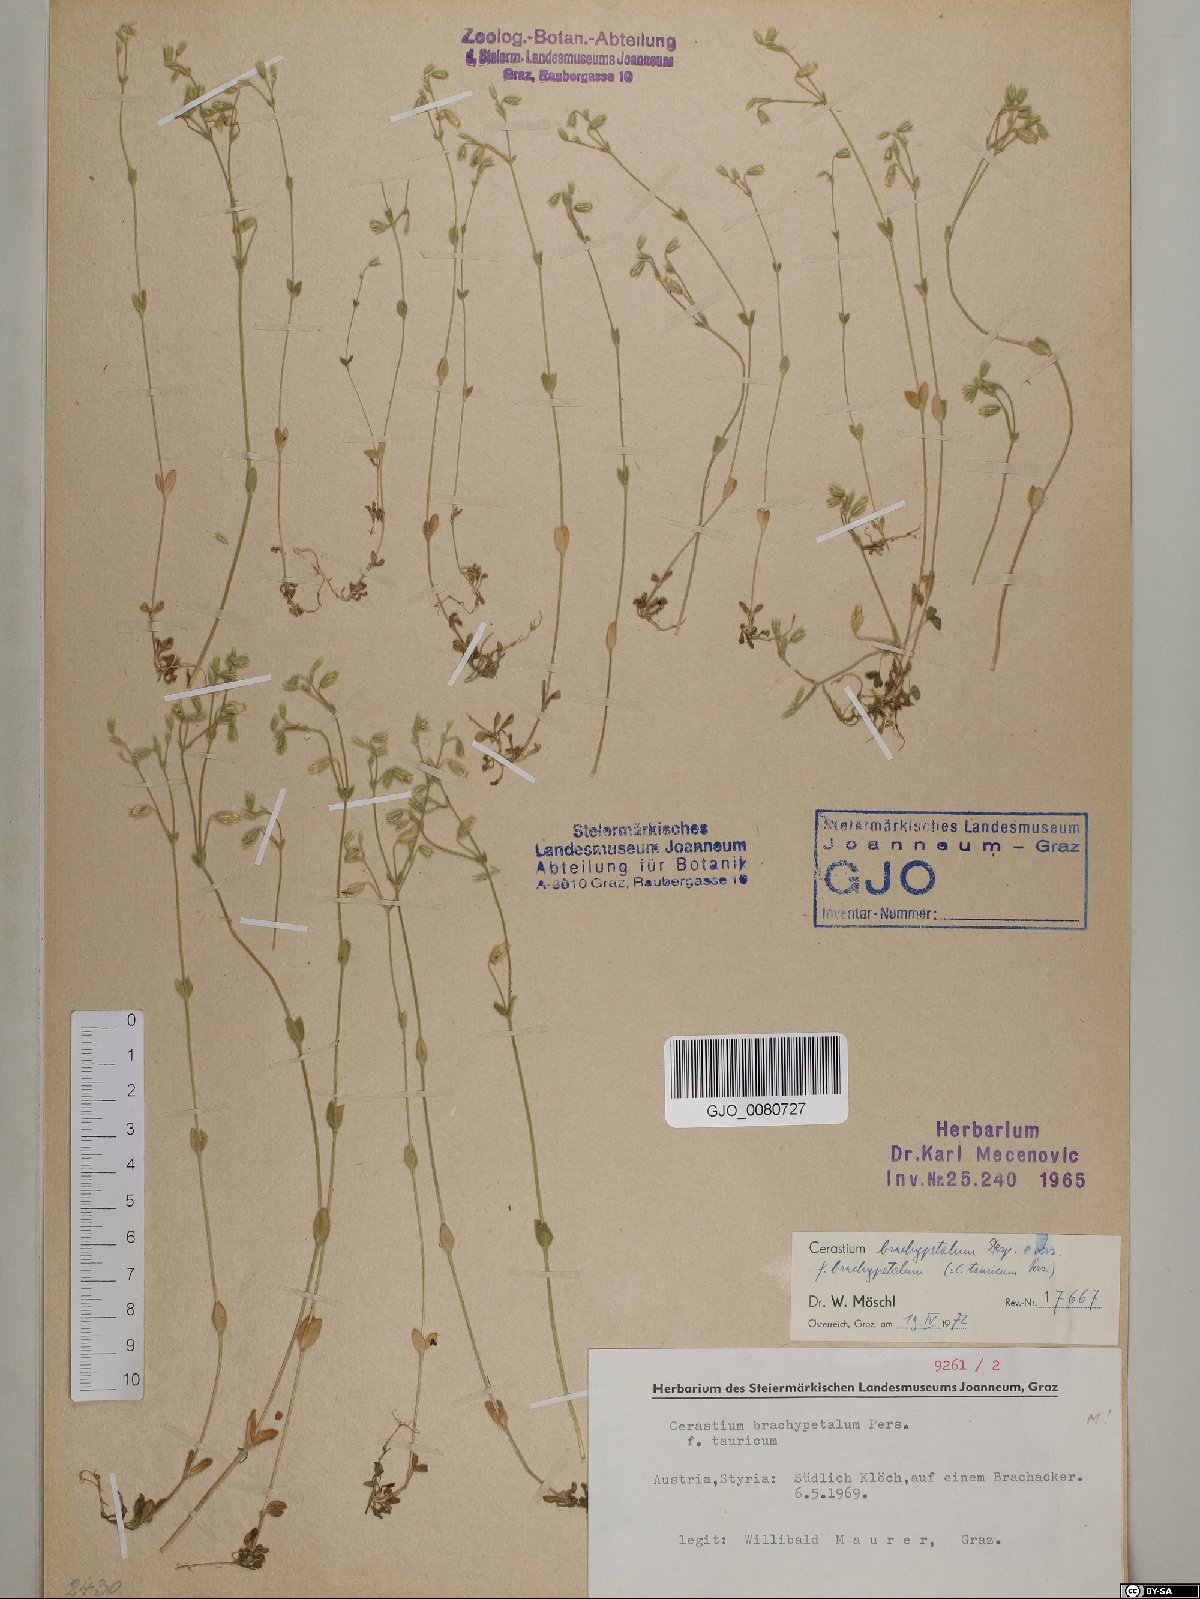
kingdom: Plantae
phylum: Tracheophyta
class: Magnoliopsida
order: Caryophyllales
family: Caryophyllaceae
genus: Cerastium
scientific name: Cerastium brachypetalum
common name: Grey mouse-ear
